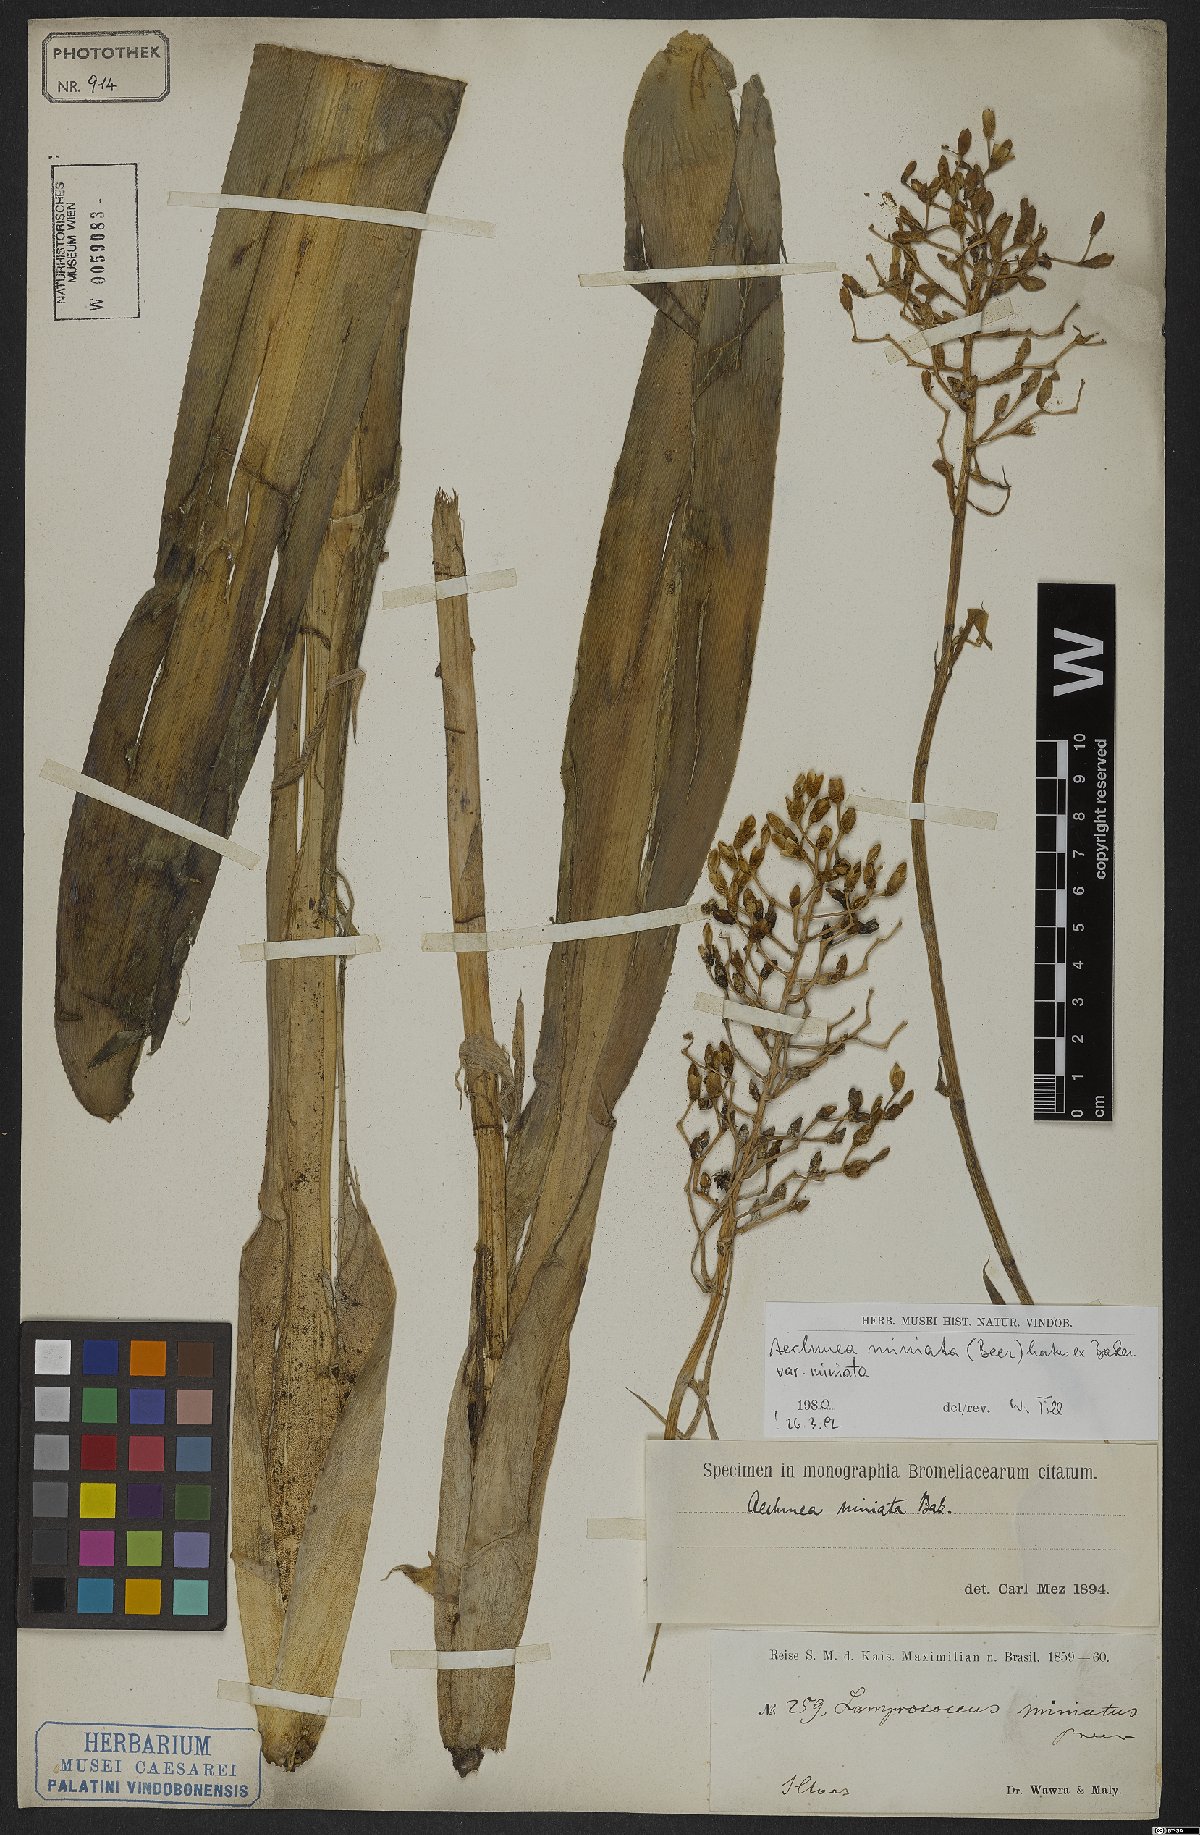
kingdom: Plantae
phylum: Tracheophyta
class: Liliopsida
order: Poales
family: Bromeliaceae
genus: Aechmea
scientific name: Aechmea miniata
